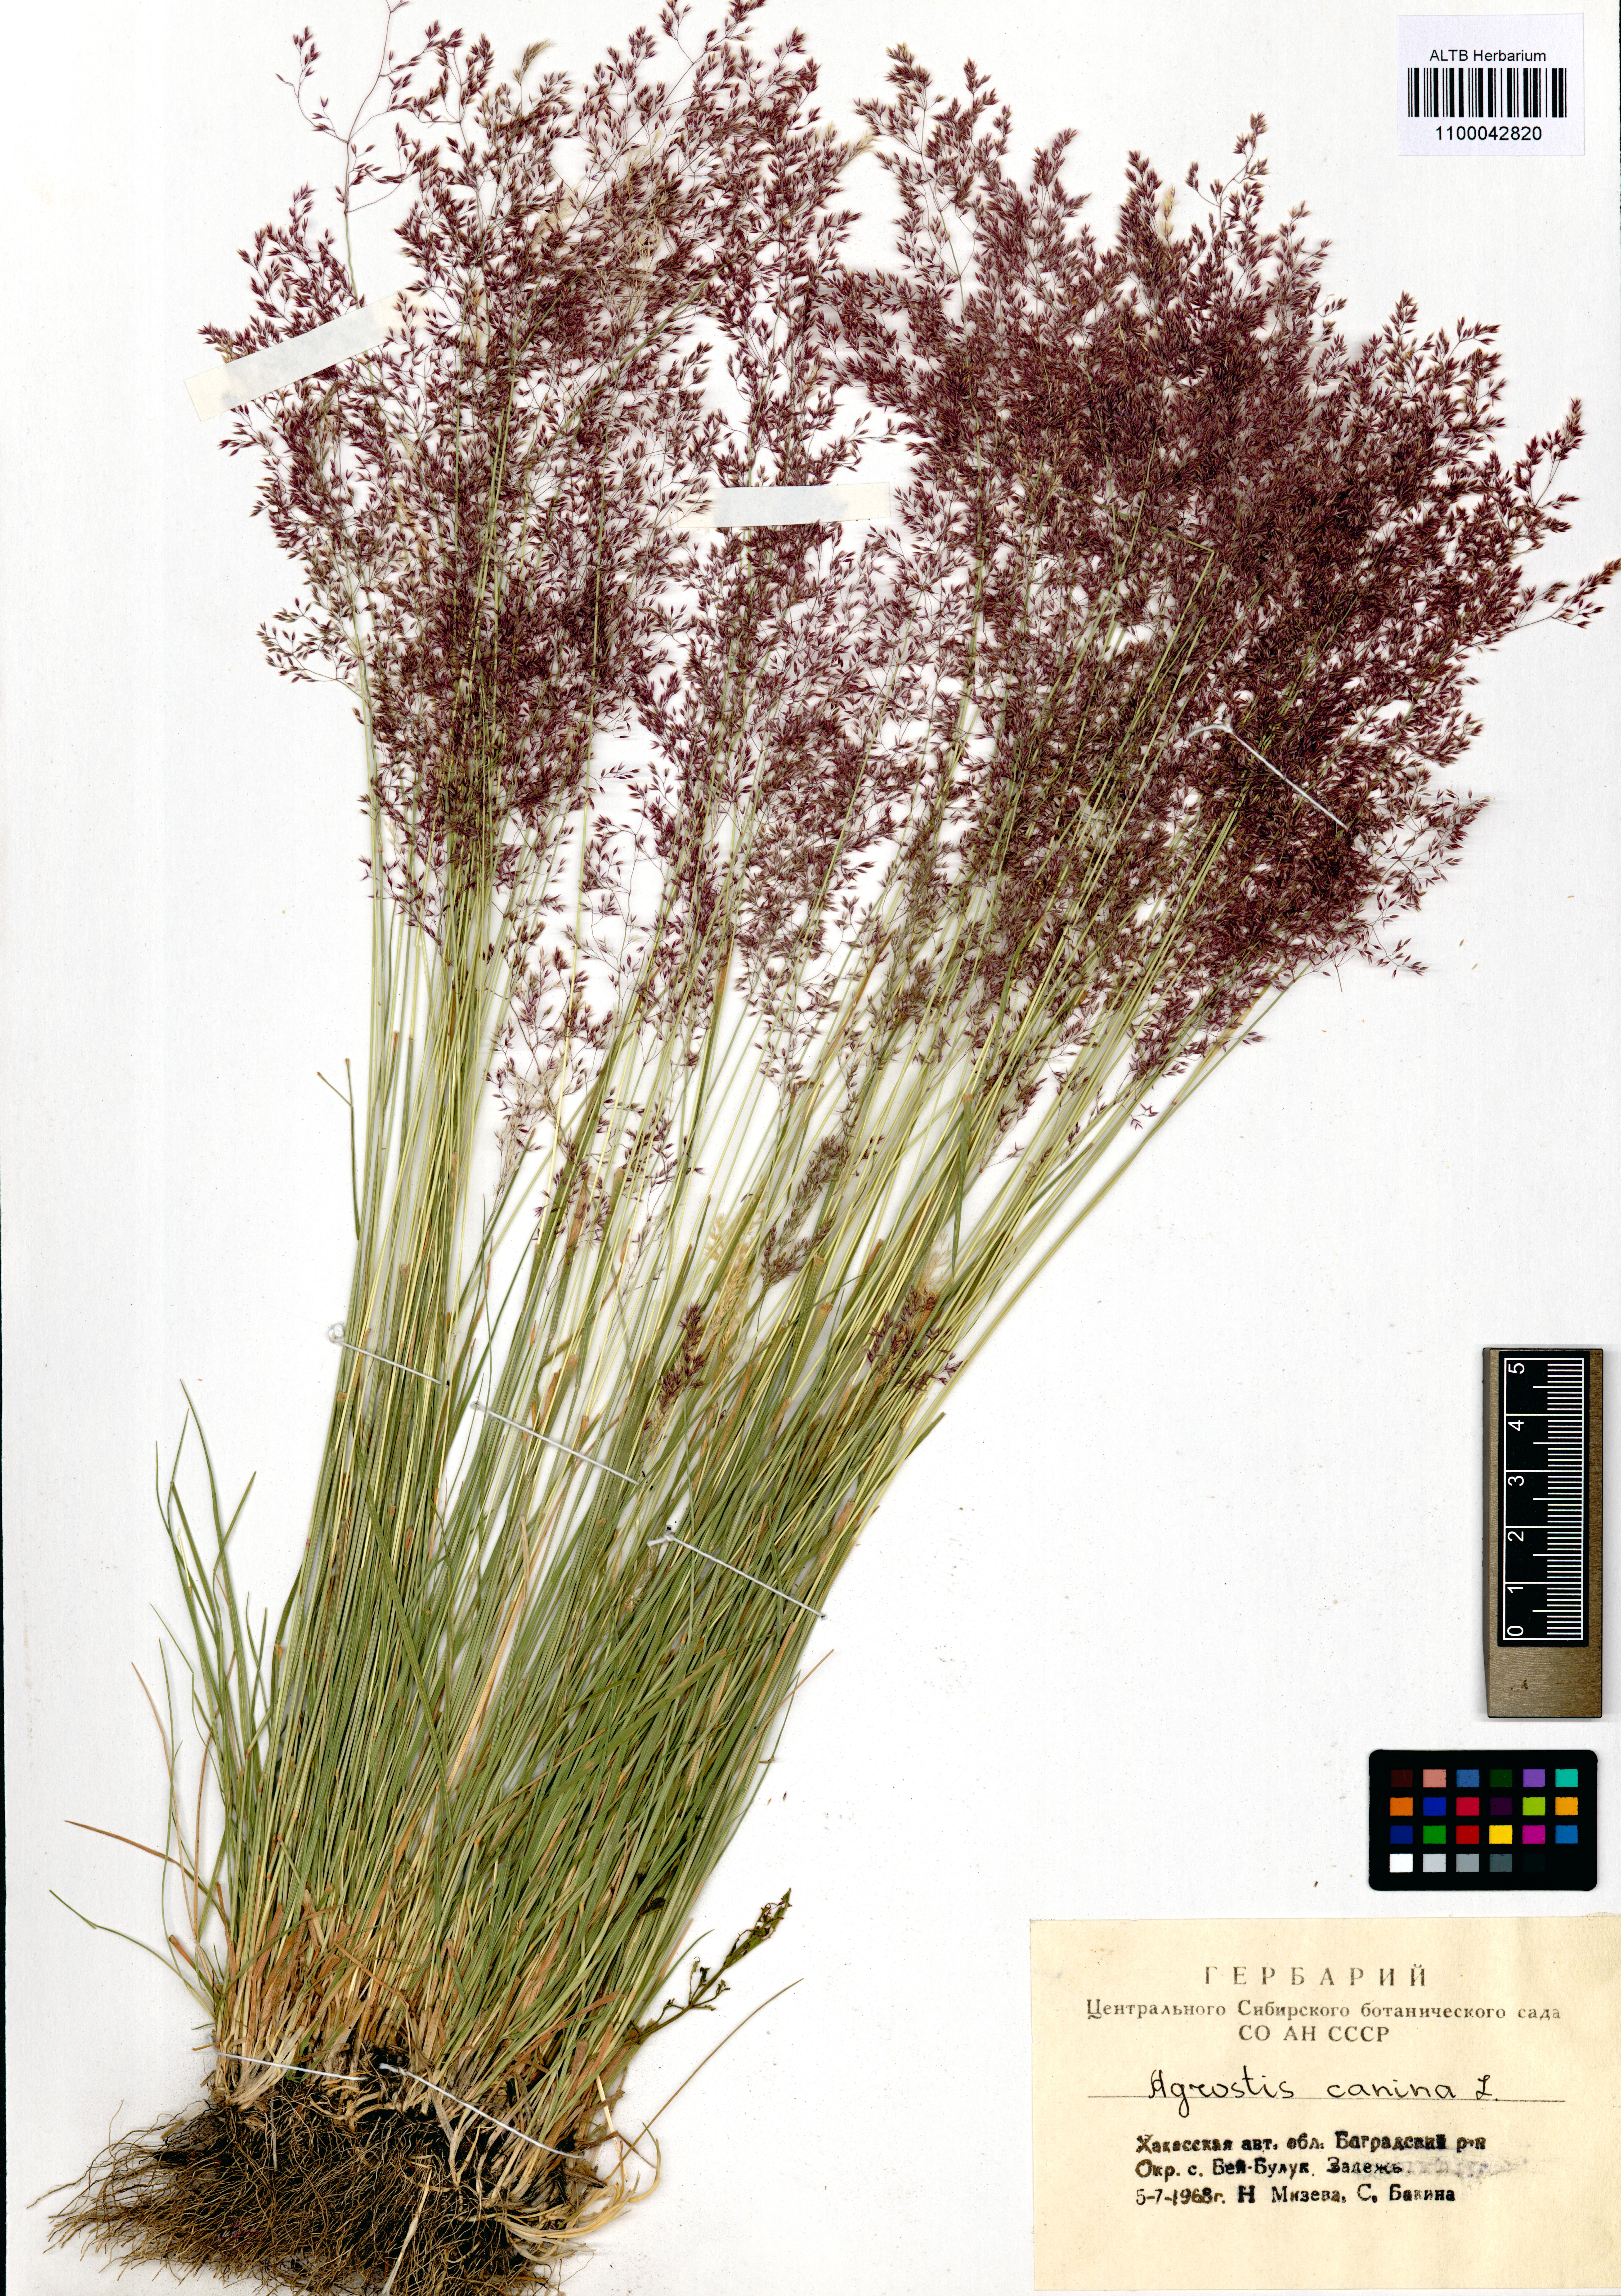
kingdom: Plantae
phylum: Tracheophyta
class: Liliopsida
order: Poales
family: Poaceae
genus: Agrostis
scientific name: Agrostis canina
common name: Velvet bent
